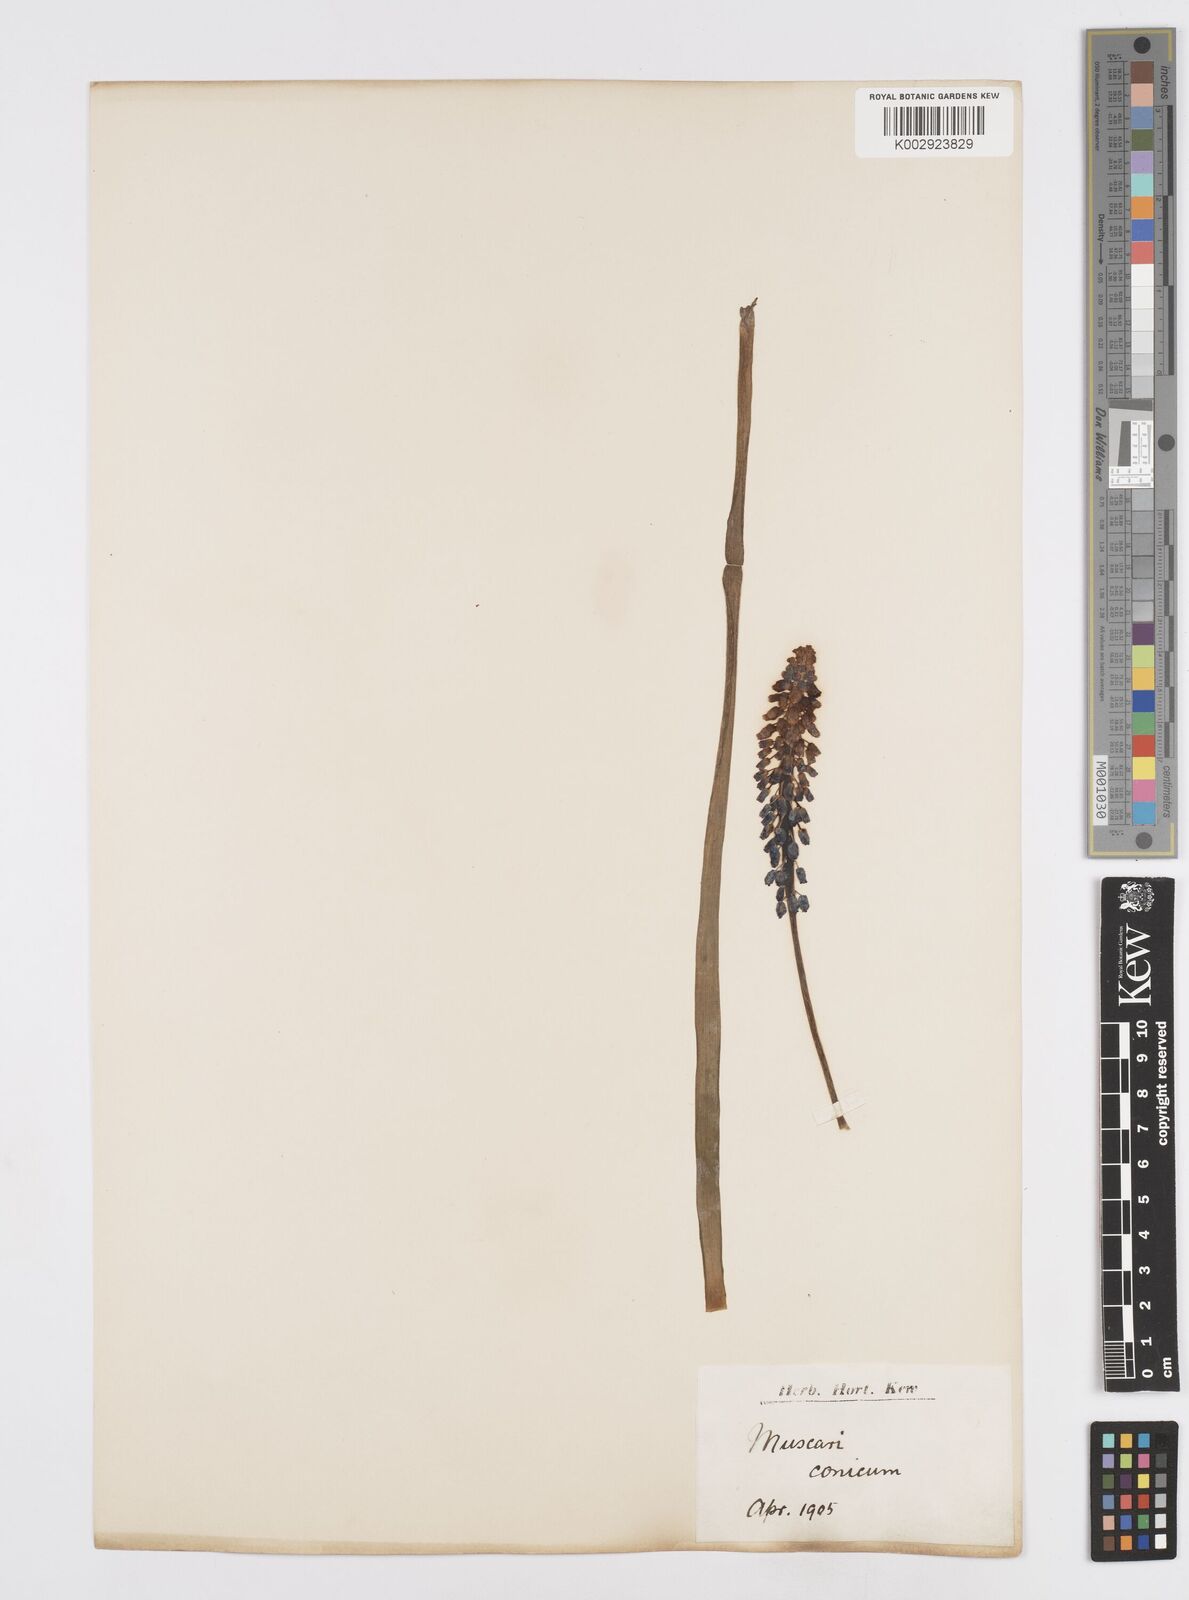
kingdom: Plantae
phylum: Tracheophyta
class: Liliopsida
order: Asparagales
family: Asparagaceae
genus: Muscari
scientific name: Muscari armeniacum
